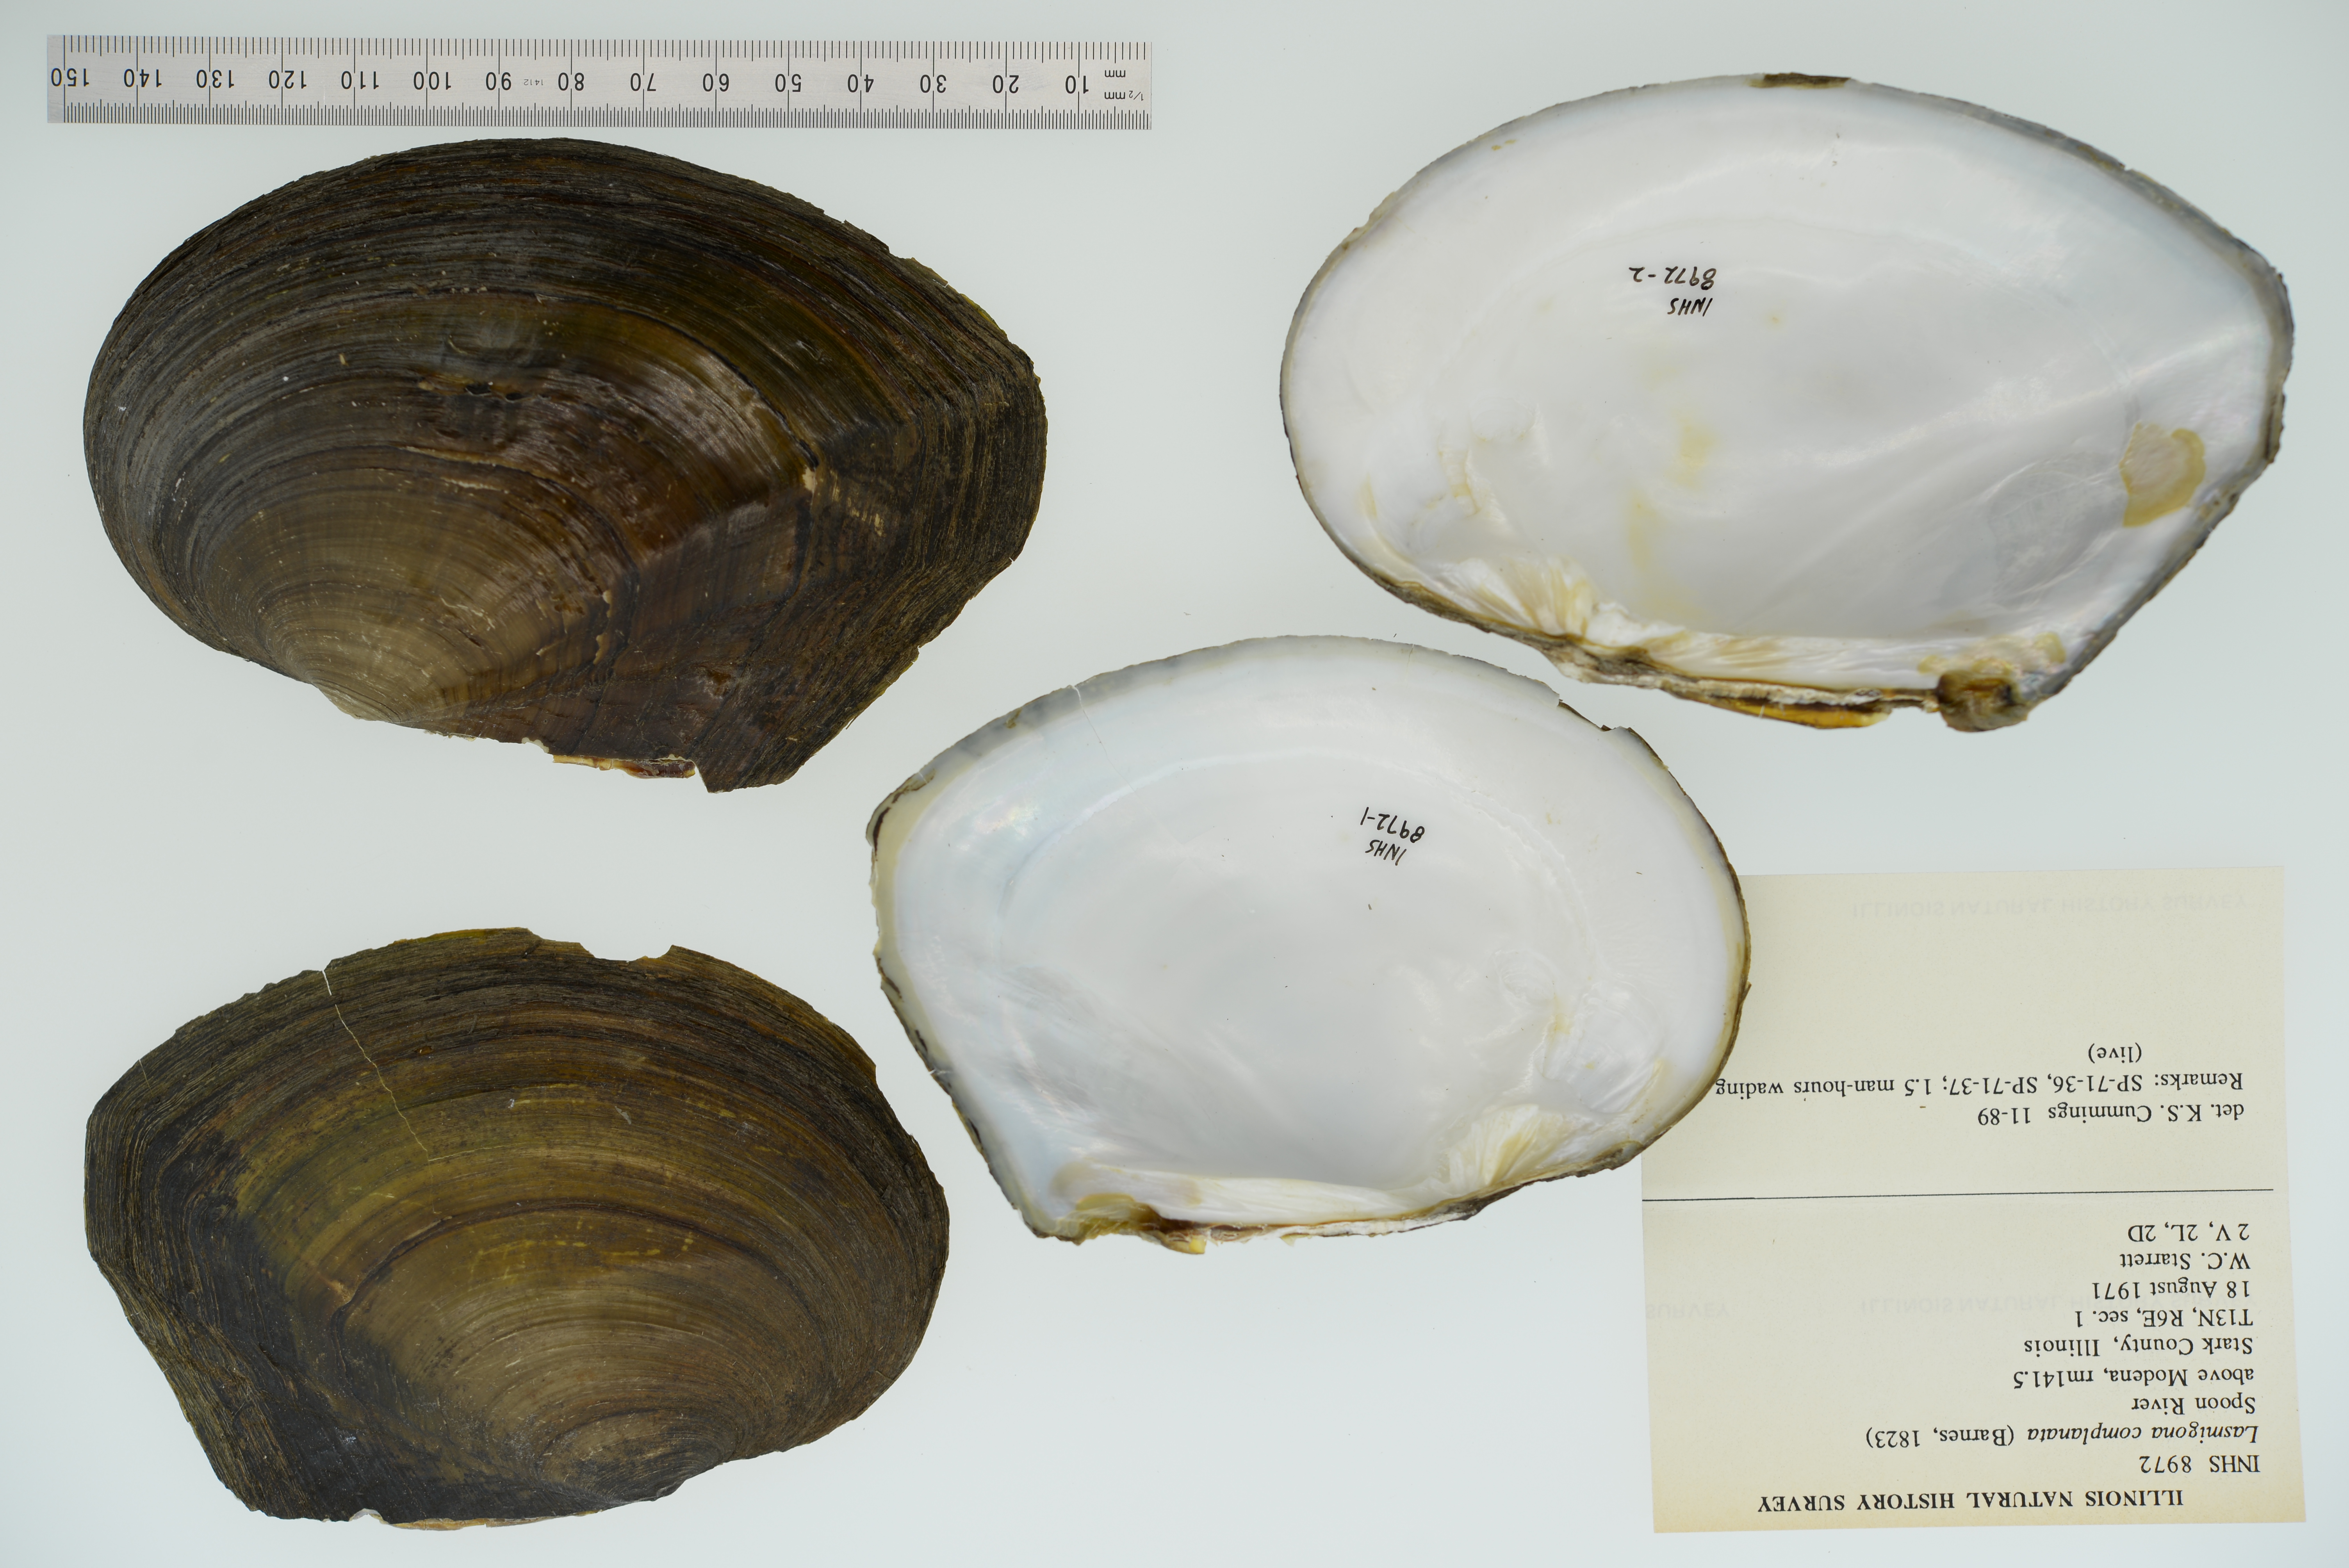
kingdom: Animalia
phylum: Mollusca
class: Bivalvia
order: Unionida
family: Unionidae
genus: Lasmigona
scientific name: Lasmigona complanata
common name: White heelsplitter
